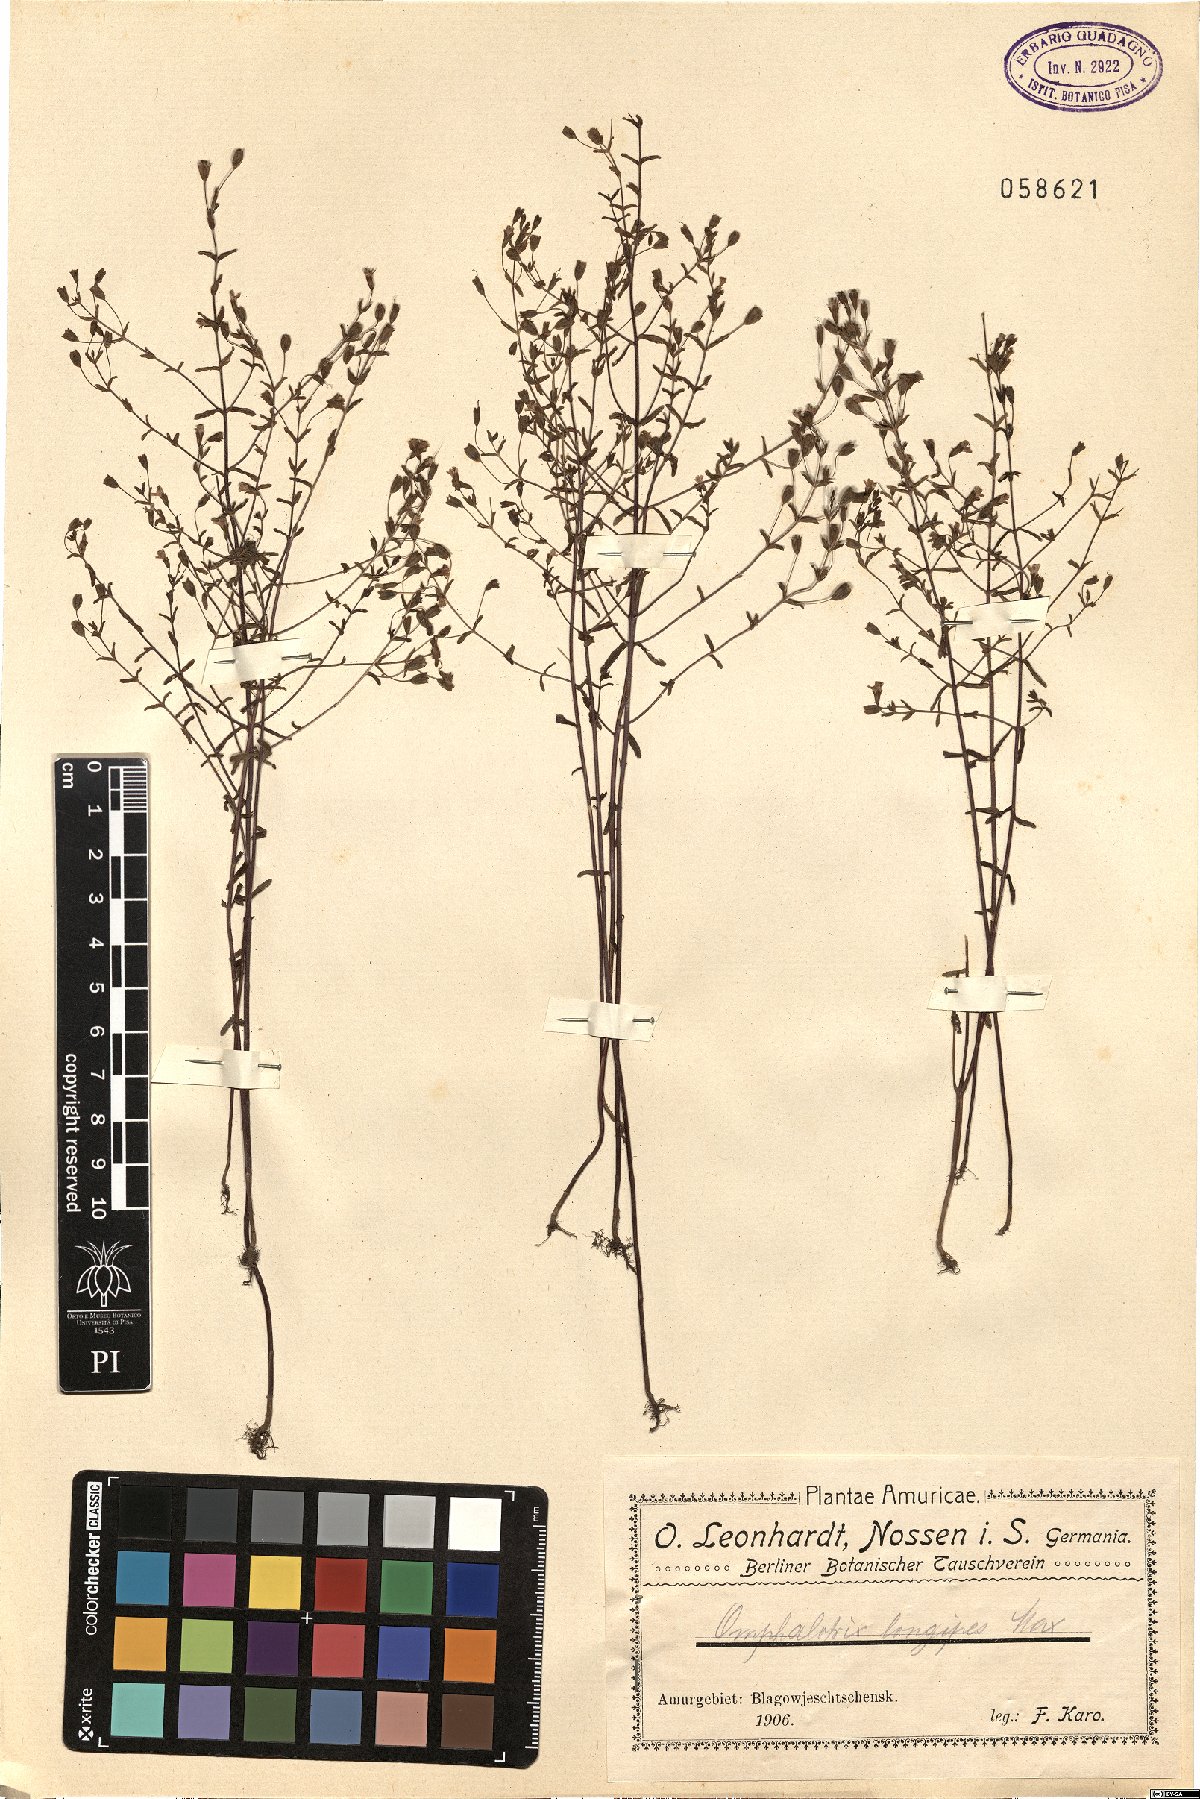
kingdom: Plantae
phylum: Tracheophyta
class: Magnoliopsida
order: Lamiales
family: Orobanchaceae
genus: Omphalotrix
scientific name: Omphalotrix longipes
